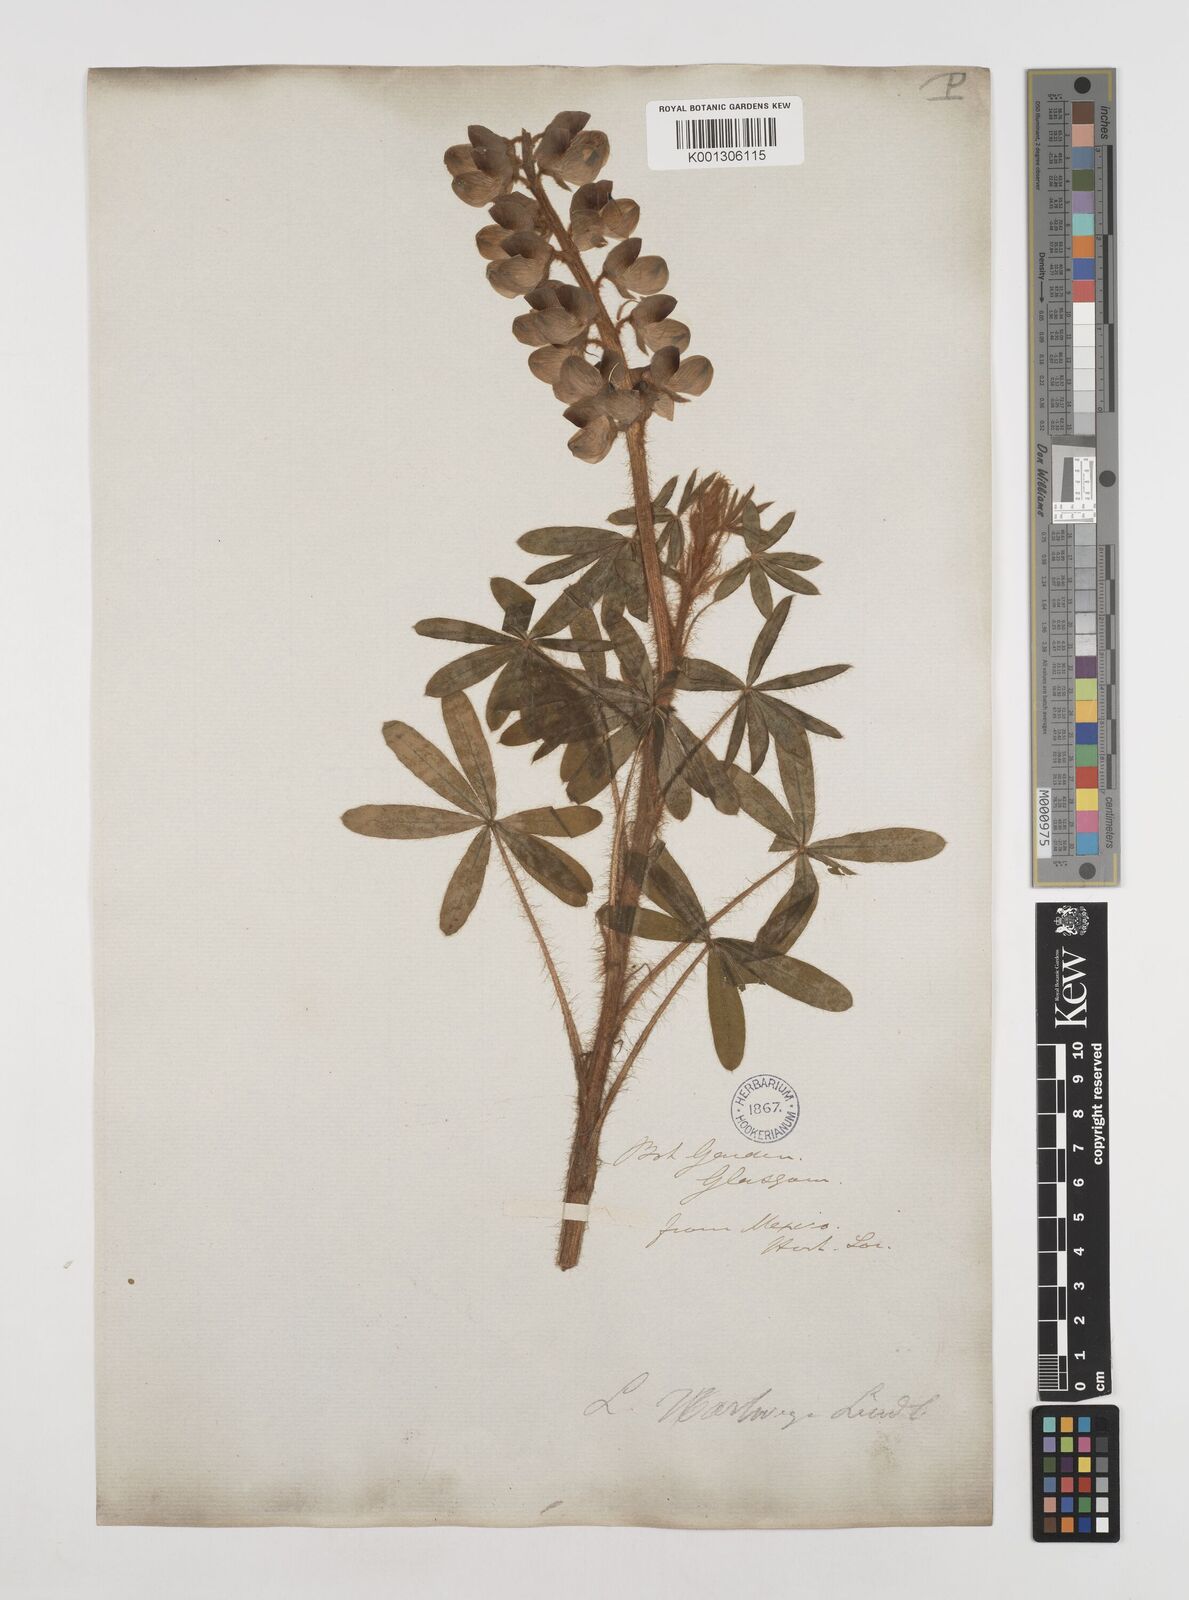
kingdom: Plantae
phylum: Tracheophyta
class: Magnoliopsida
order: Fabales
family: Fabaceae
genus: Lupinus
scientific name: Lupinus ehrenbergii
